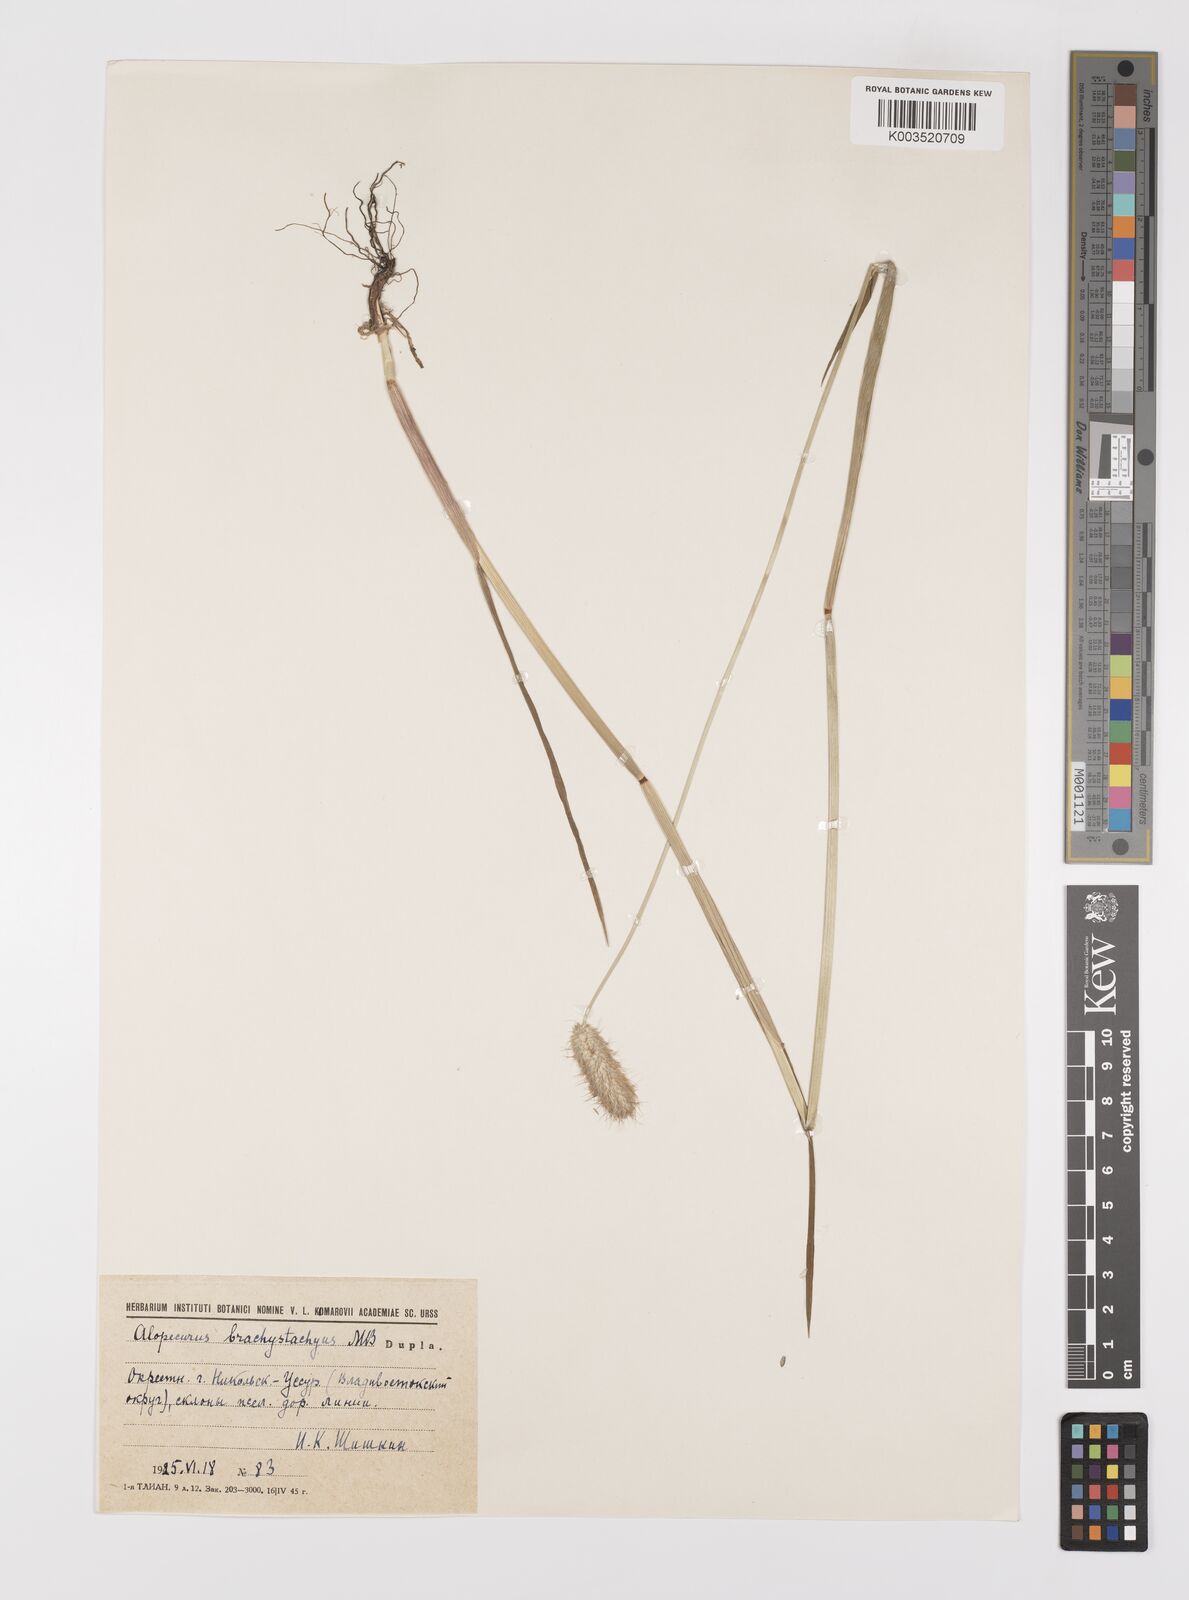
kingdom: Plantae
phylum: Tracheophyta
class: Liliopsida
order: Poales
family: Poaceae
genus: Alopecurus
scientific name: Alopecurus brachystachyus
